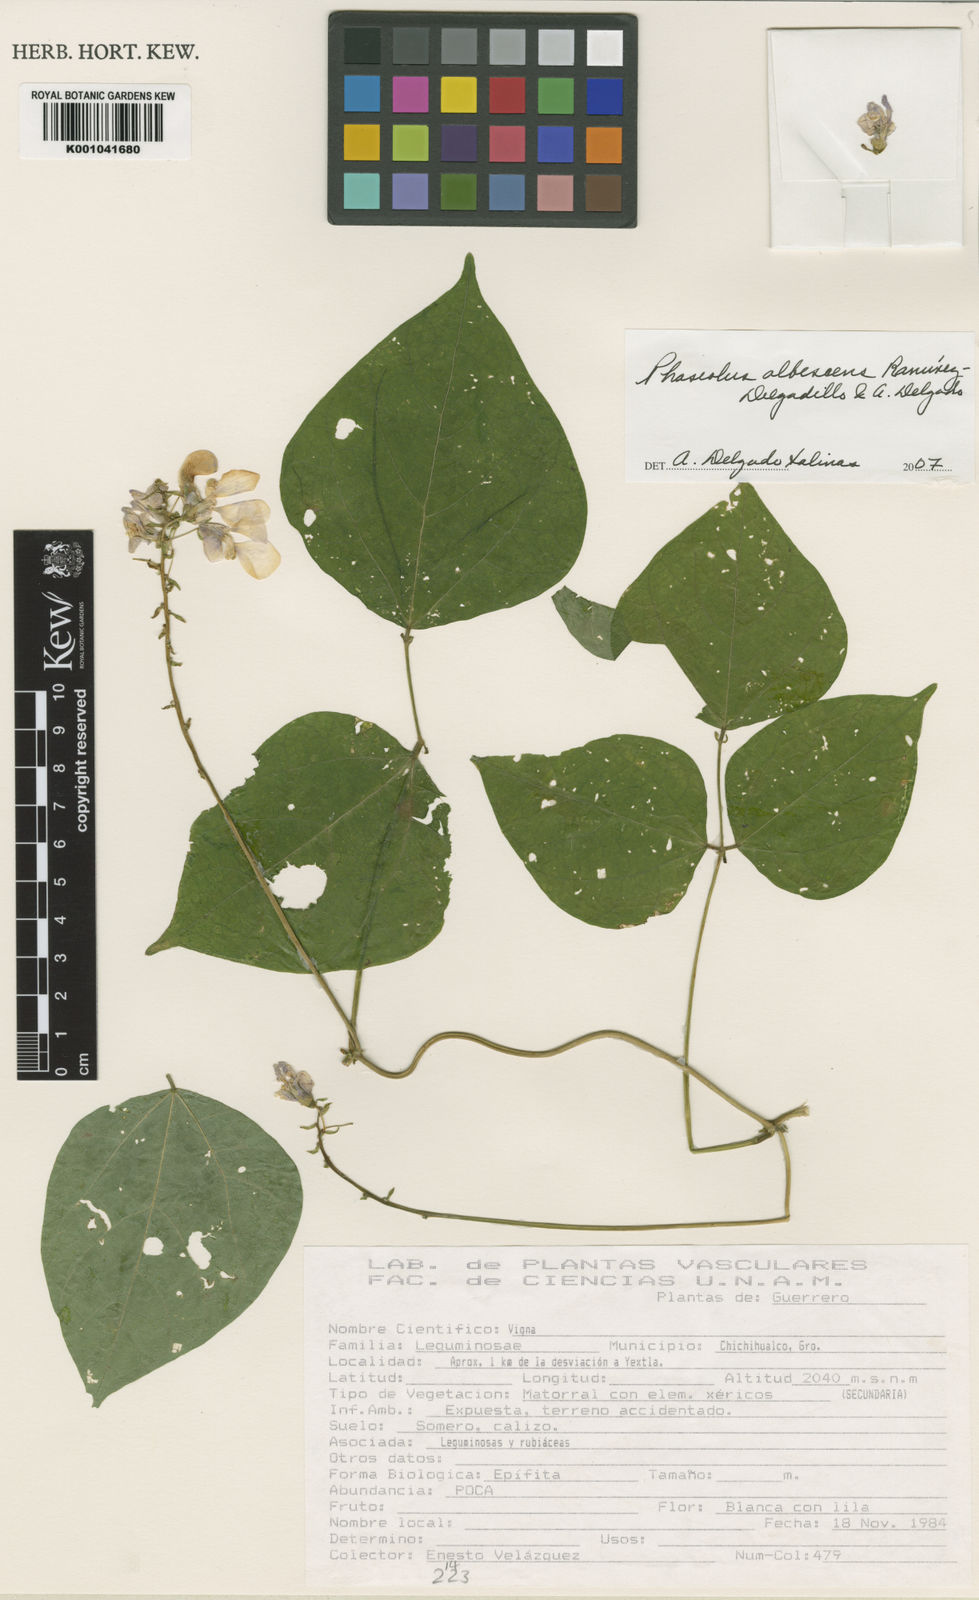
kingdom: Plantae
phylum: Tracheophyta
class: Magnoliopsida
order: Fabales
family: Fabaceae
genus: Phaseolus
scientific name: Phaseolus albescens
